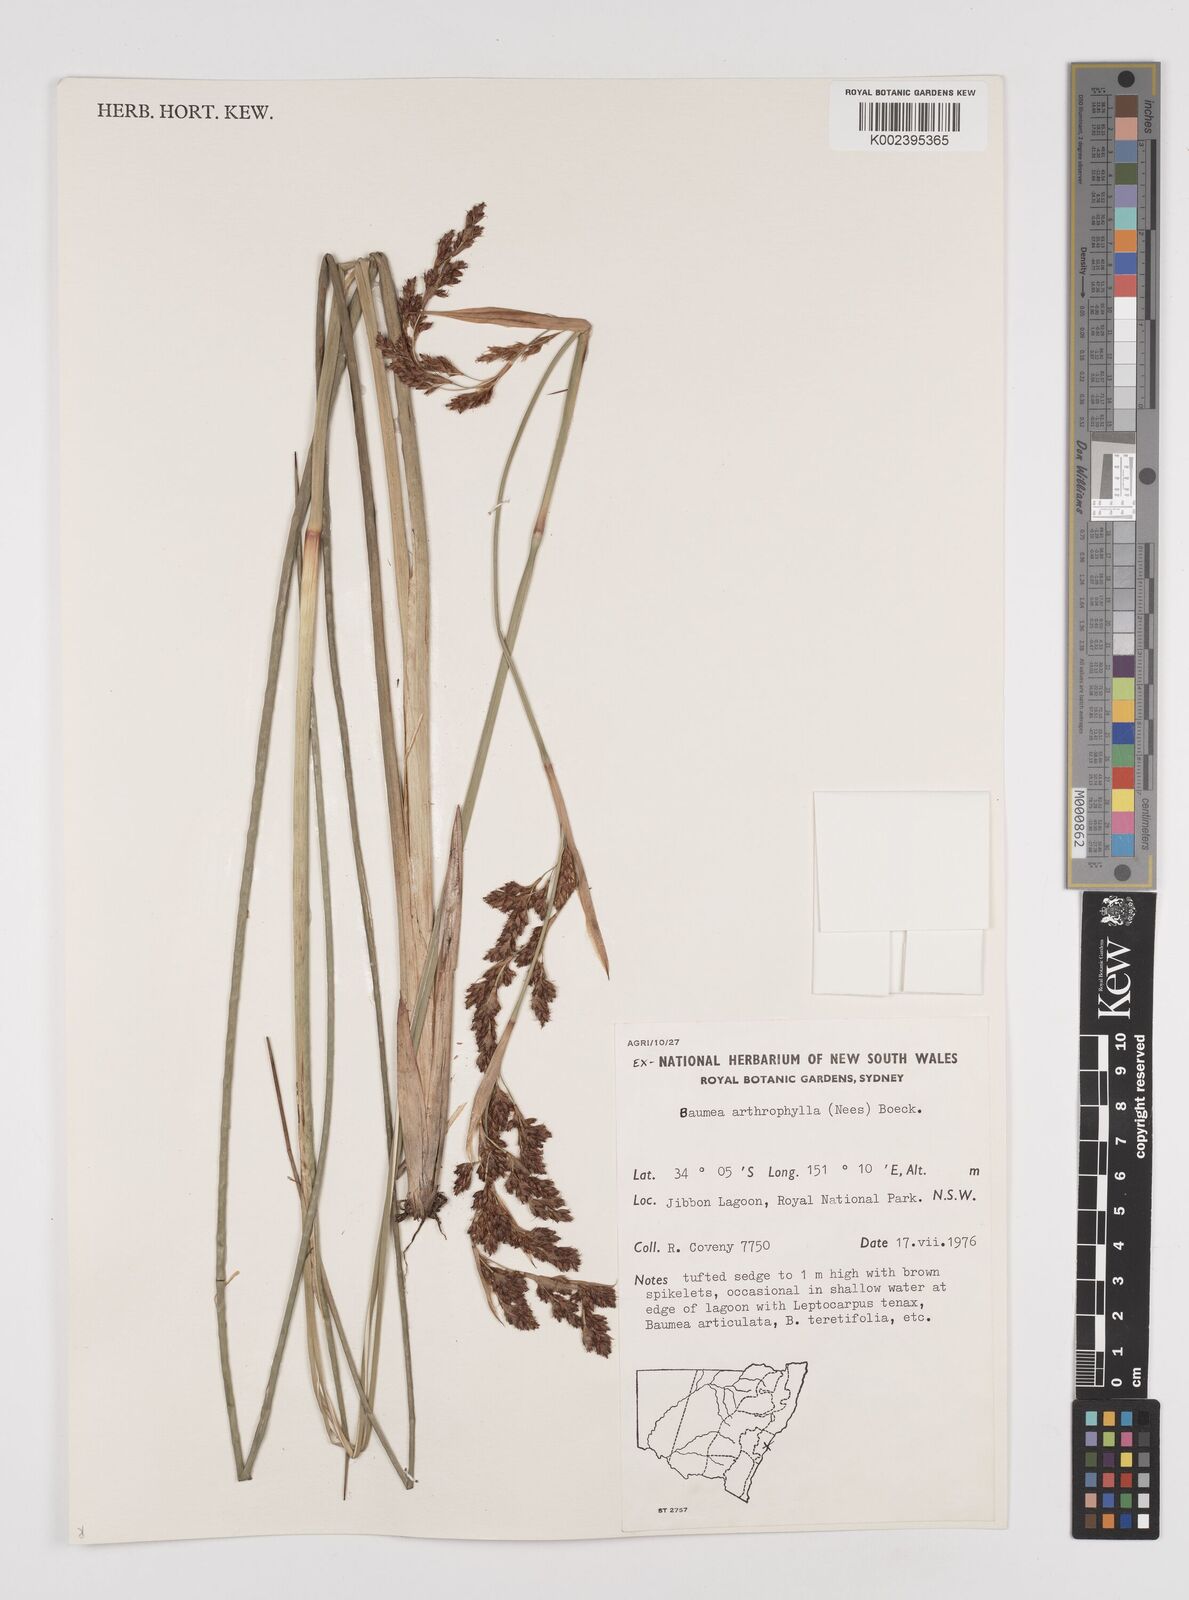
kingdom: Plantae
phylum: Tracheophyta
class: Liliopsida
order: Poales
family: Cyperaceae
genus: Machaerina
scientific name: Machaerina arthrophylla
